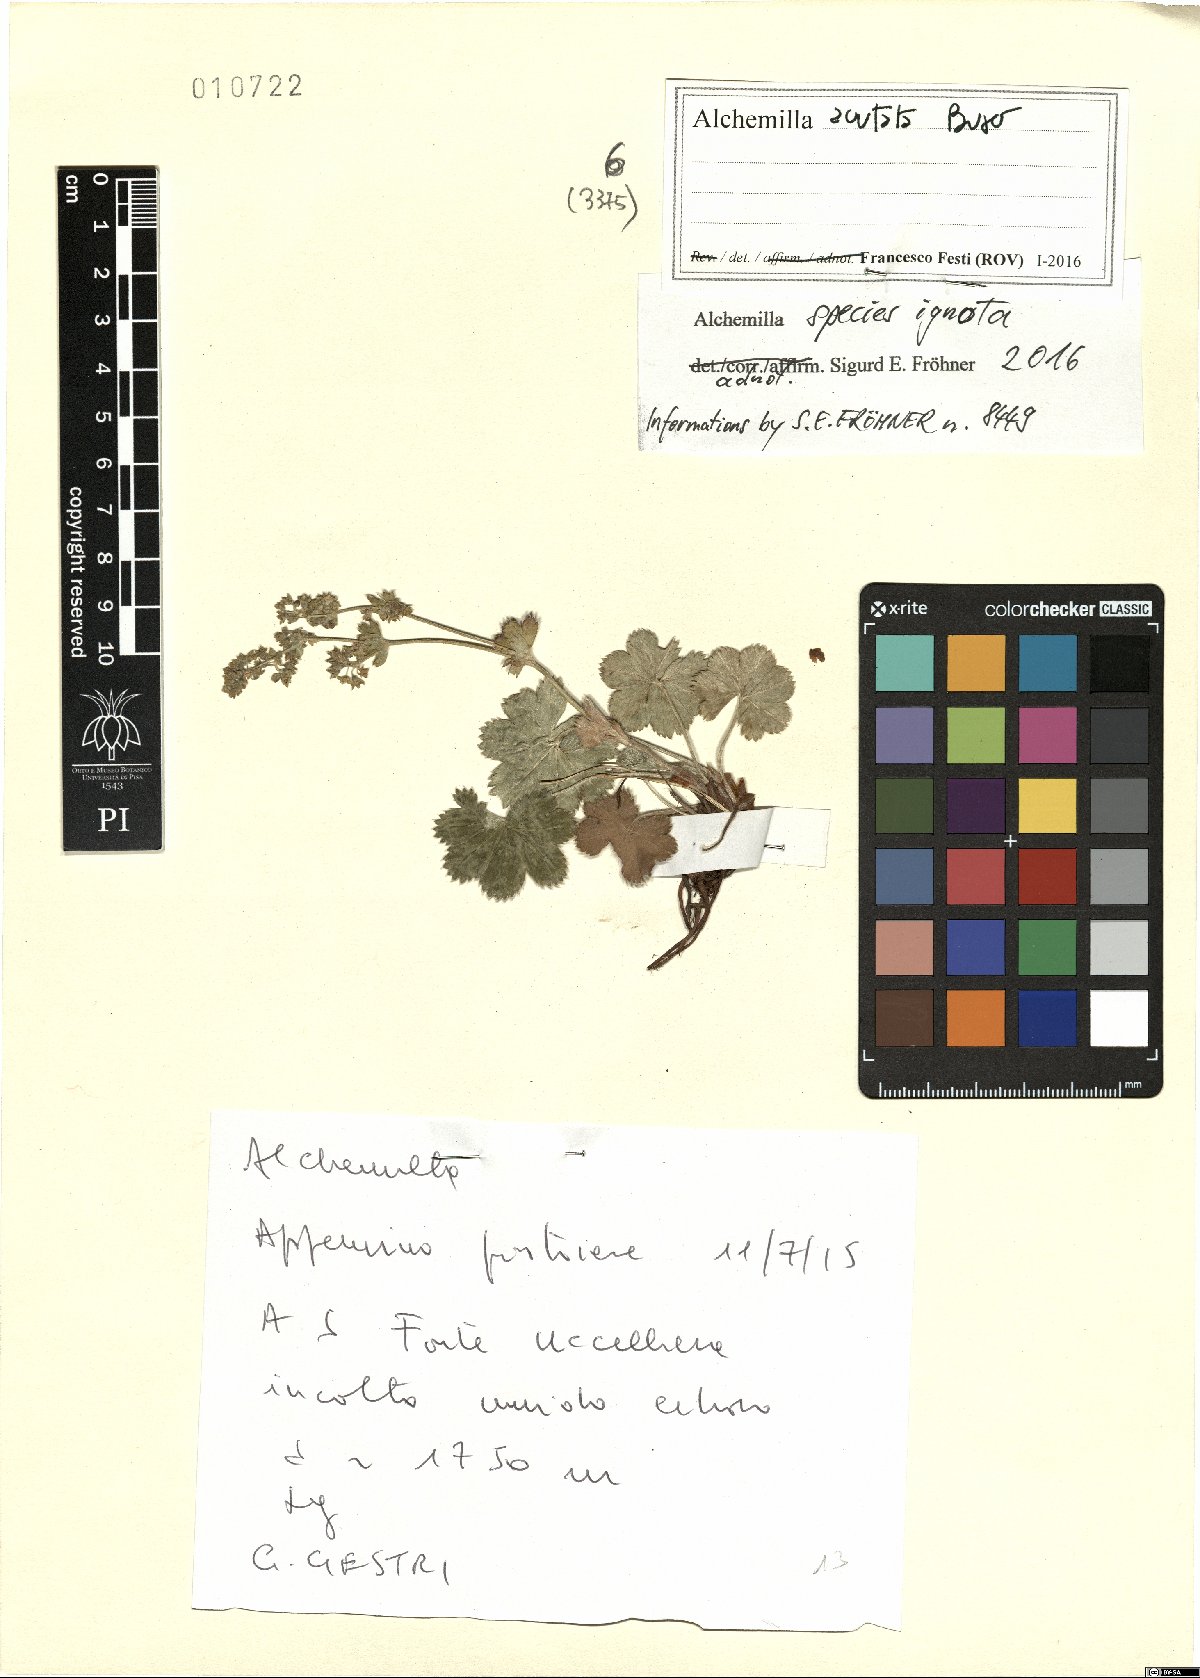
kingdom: Plantae
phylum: Tracheophyta
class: Magnoliopsida
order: Rosales
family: Rosaceae
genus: Alchemilla
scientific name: Alchemilla
